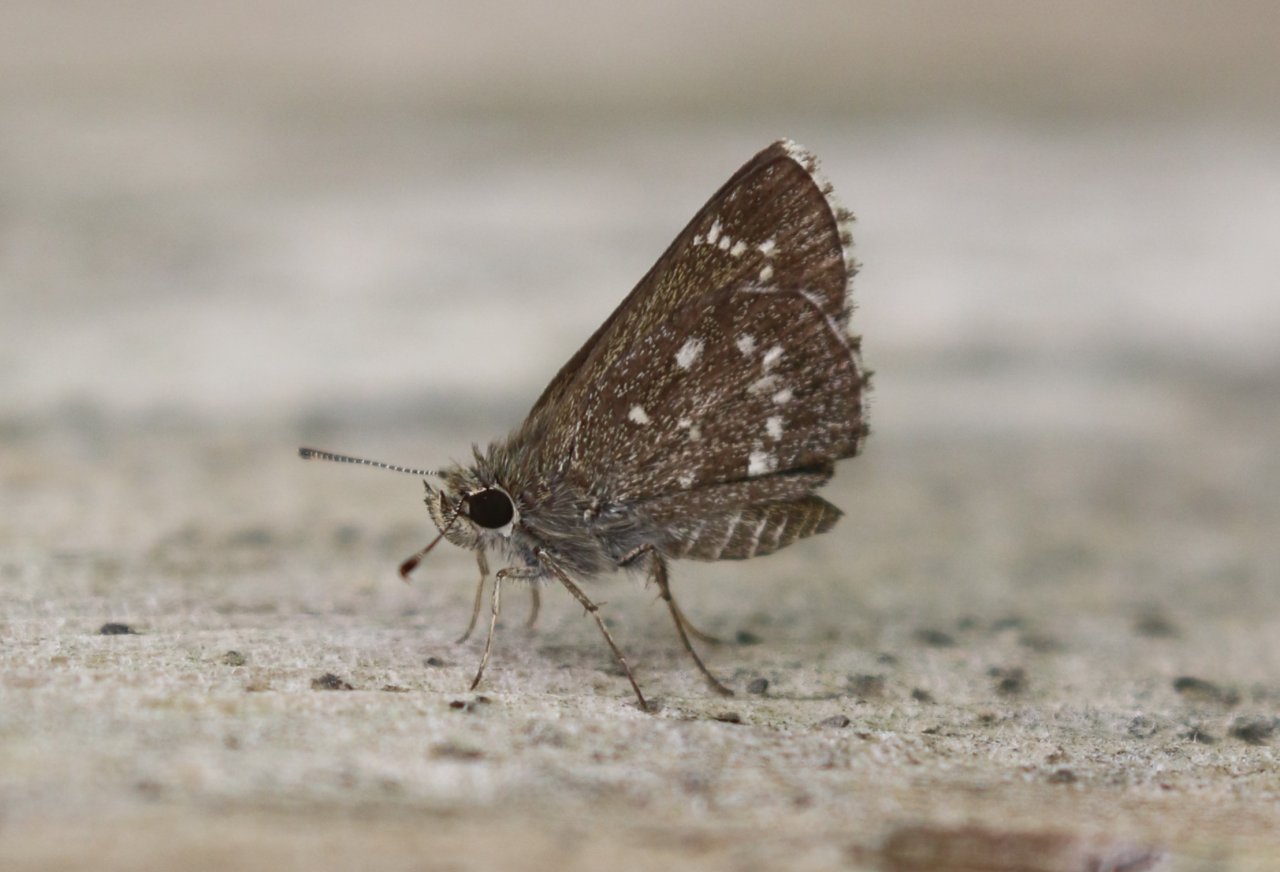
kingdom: Animalia
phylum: Arthropoda
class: Insecta
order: Lepidoptera
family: Hesperiidae
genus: Mastor
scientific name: Mastor celia
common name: Celia's Roadside-Skipper
